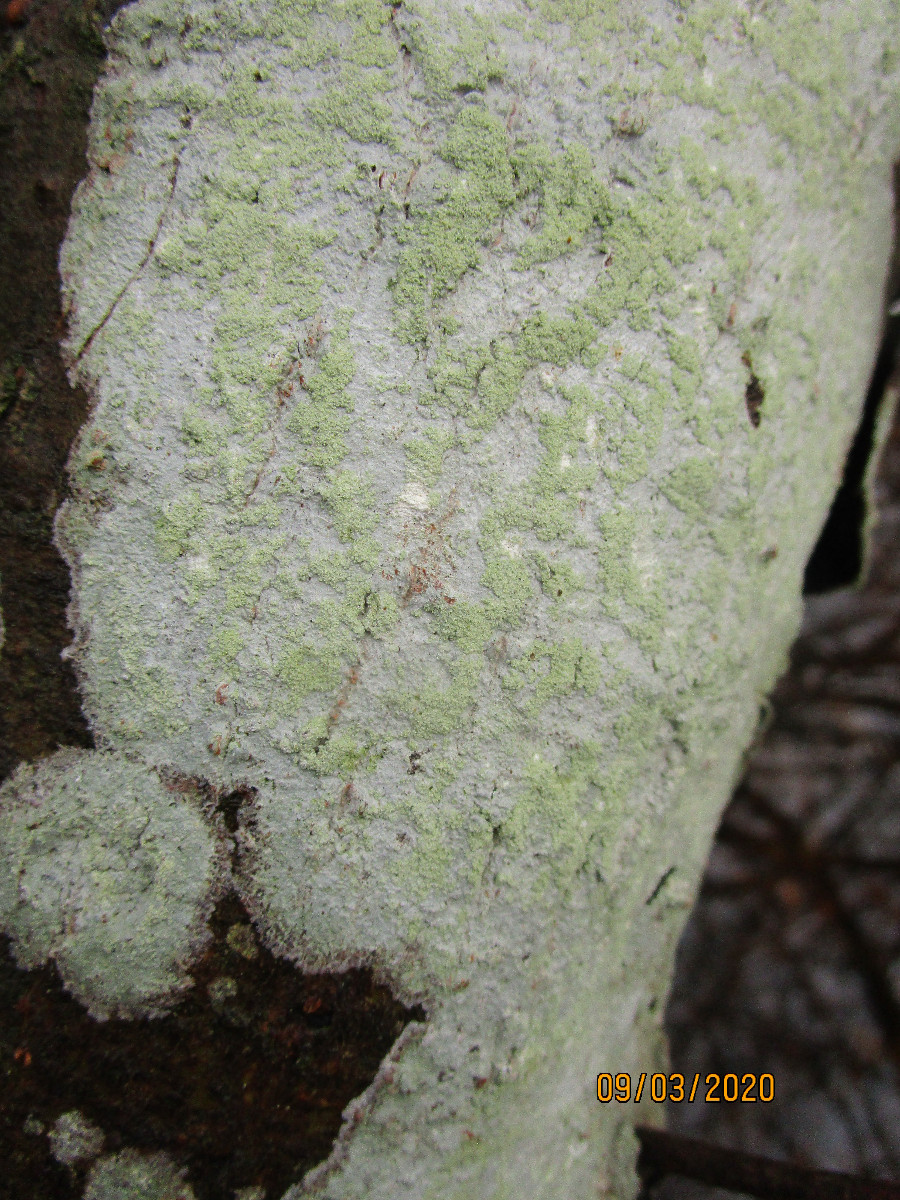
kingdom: Fungi
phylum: Ascomycota
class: Lecanoromycetes
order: Ostropales
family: Phlyctidaceae
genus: Phlyctis
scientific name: Phlyctis argena
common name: almindelig sølvlav
